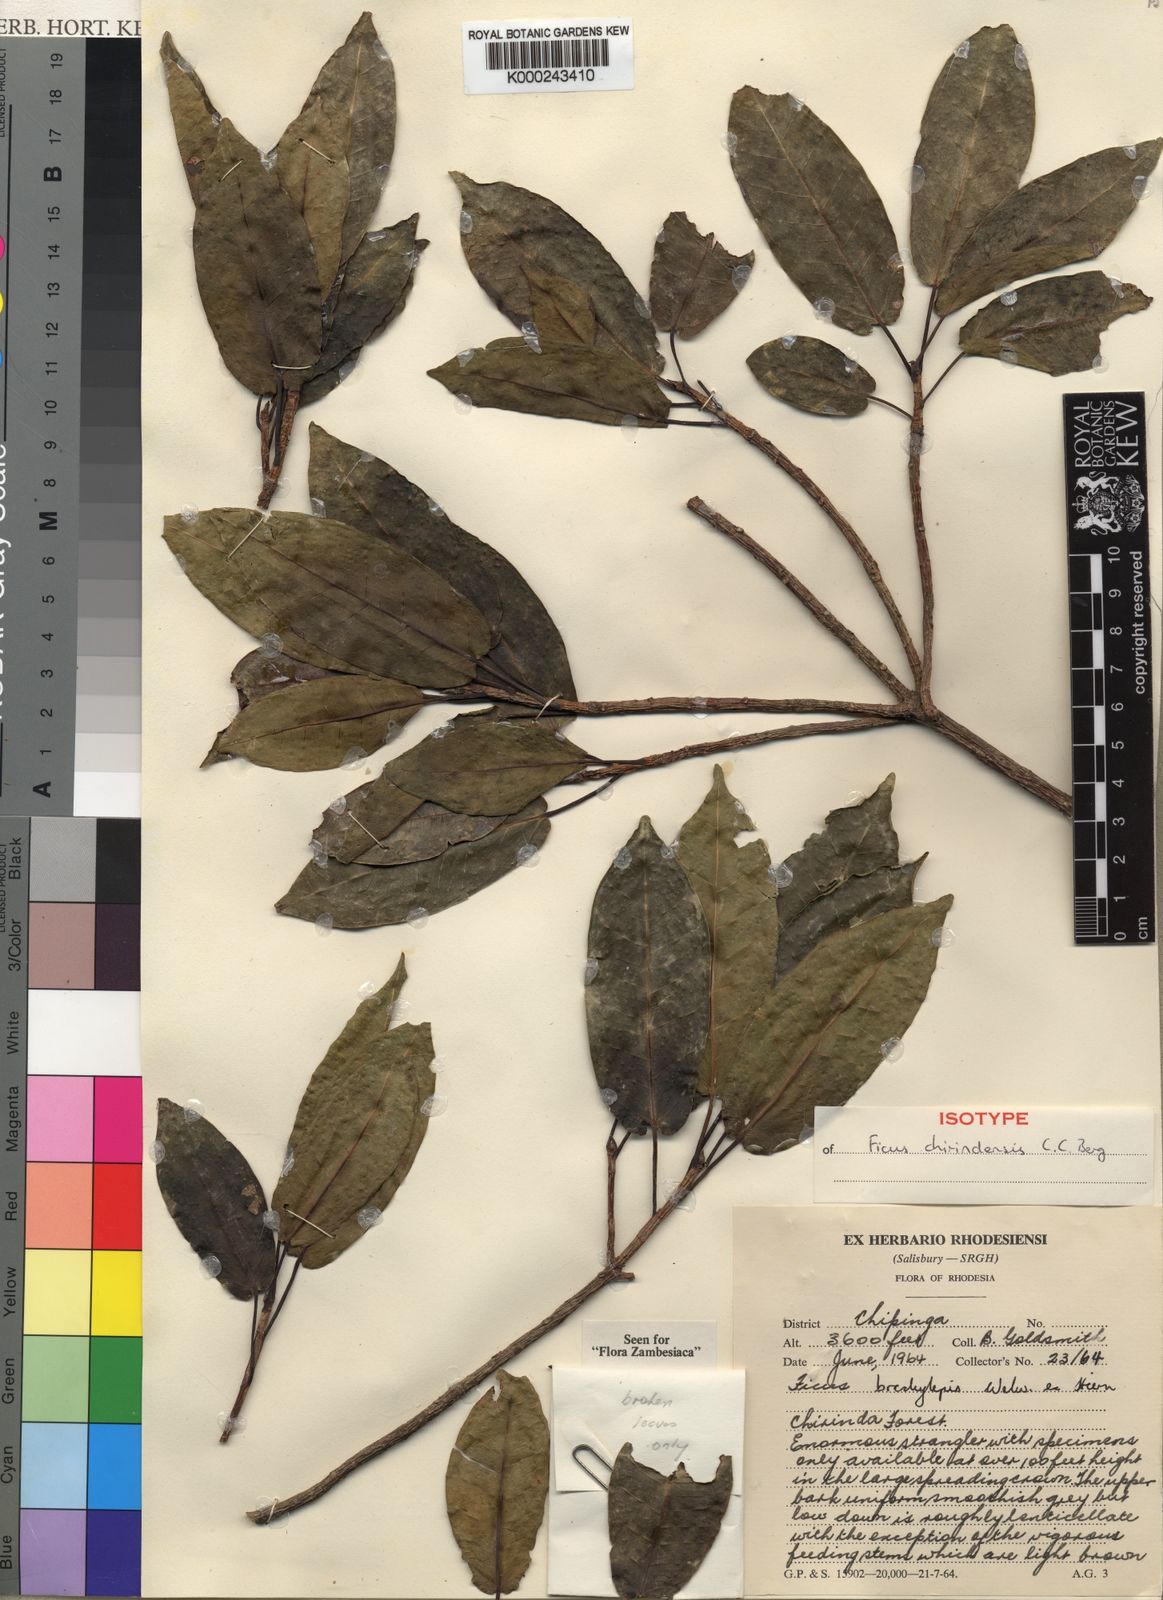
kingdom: Plantae
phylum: Tracheophyta
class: Magnoliopsida
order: Rosales
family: Moraceae
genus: Ficus
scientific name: Ficus chirindensis
